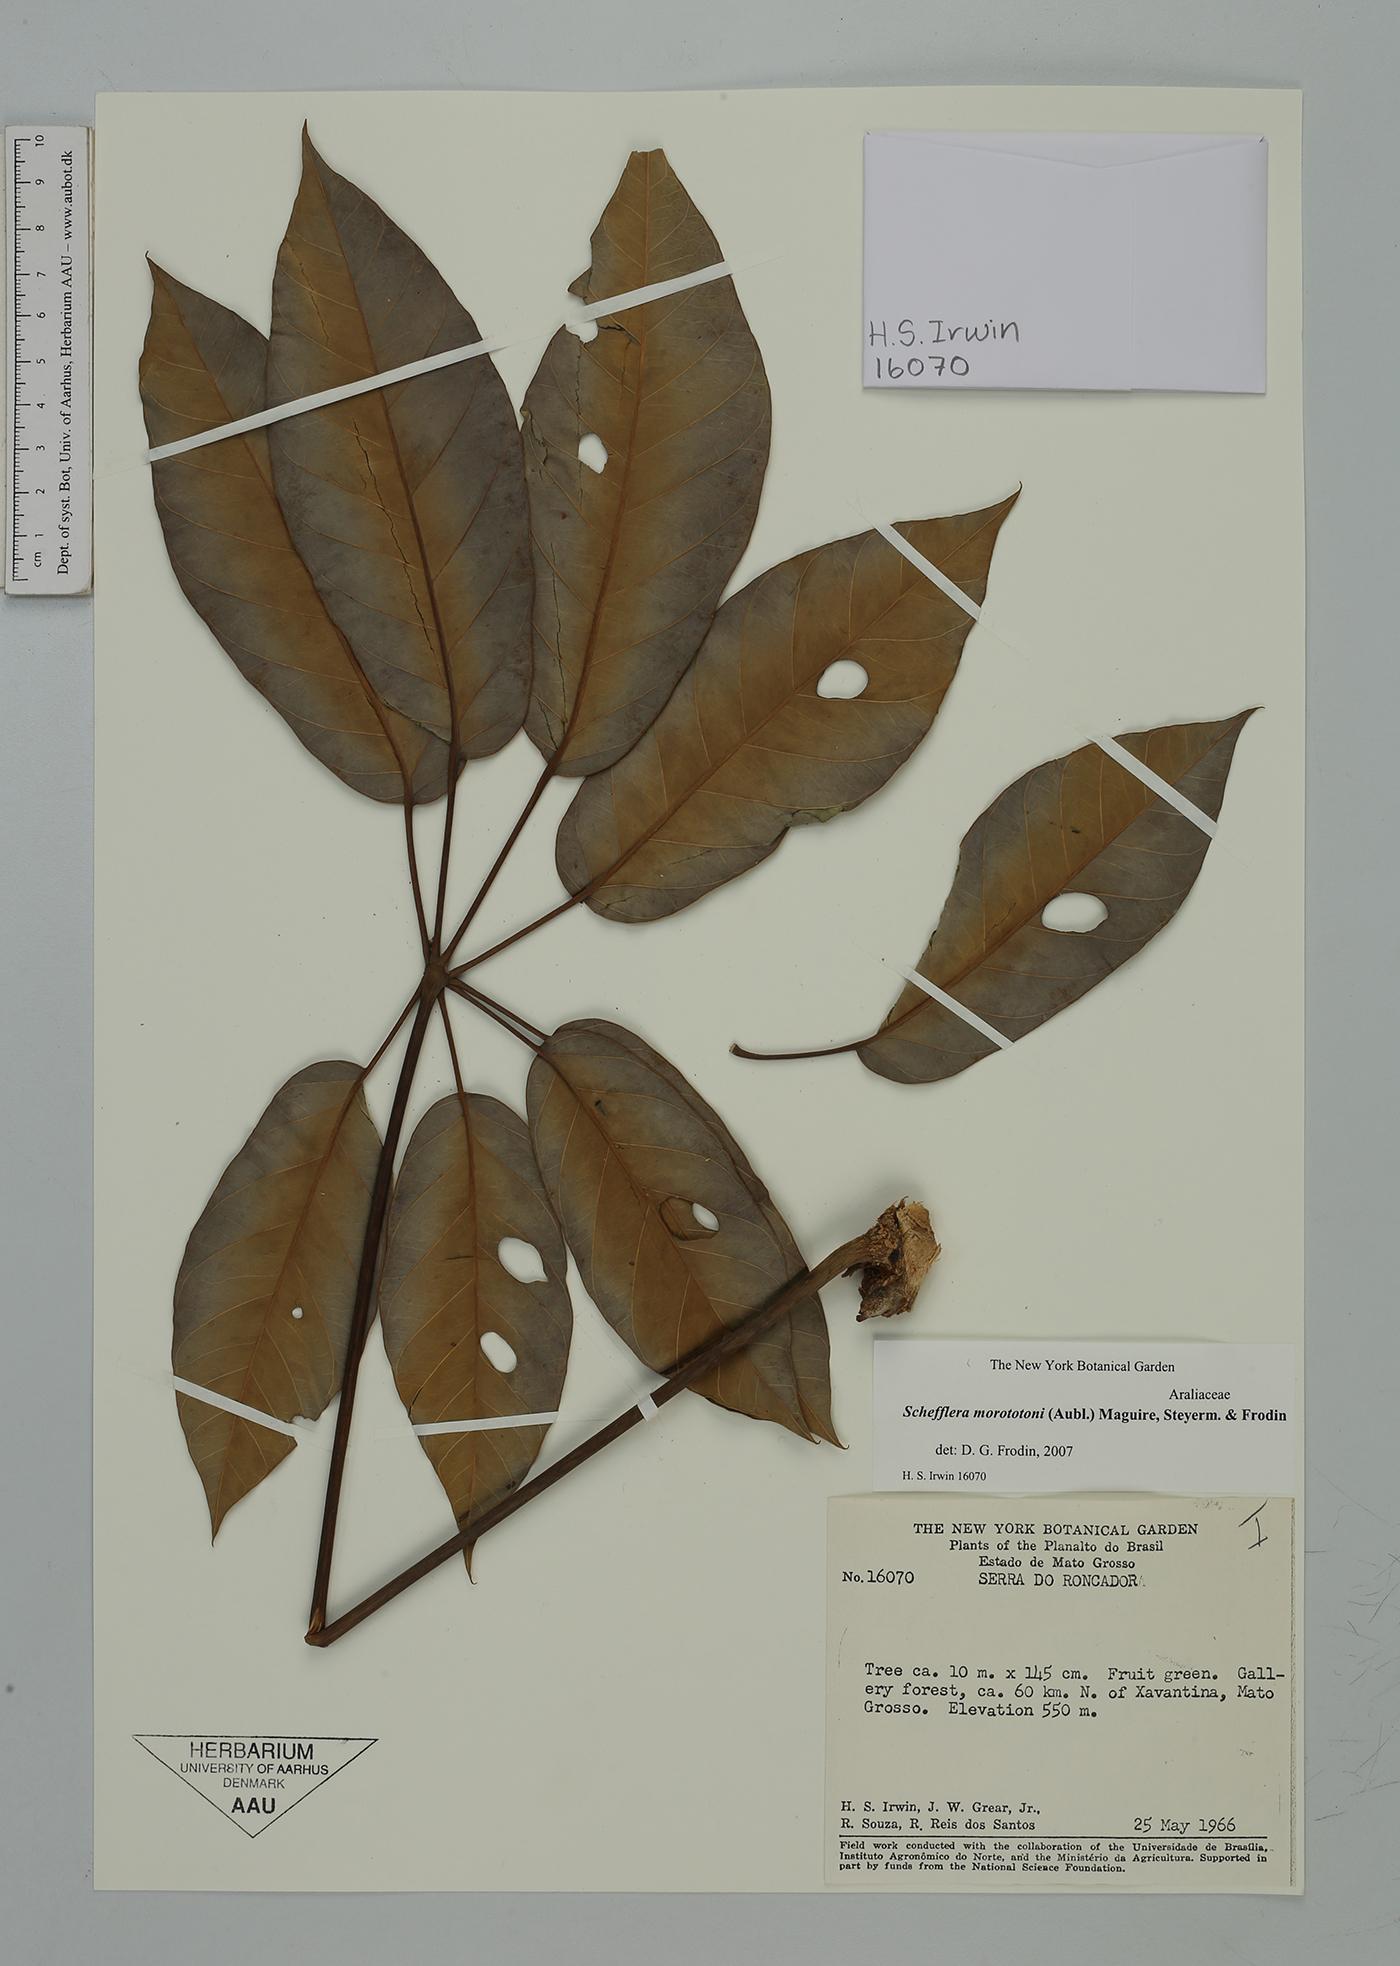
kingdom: Plantae
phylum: Tracheophyta
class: Magnoliopsida
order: Apiales
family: Araliaceae
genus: Didymopanax
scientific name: Didymopanax morototoni
